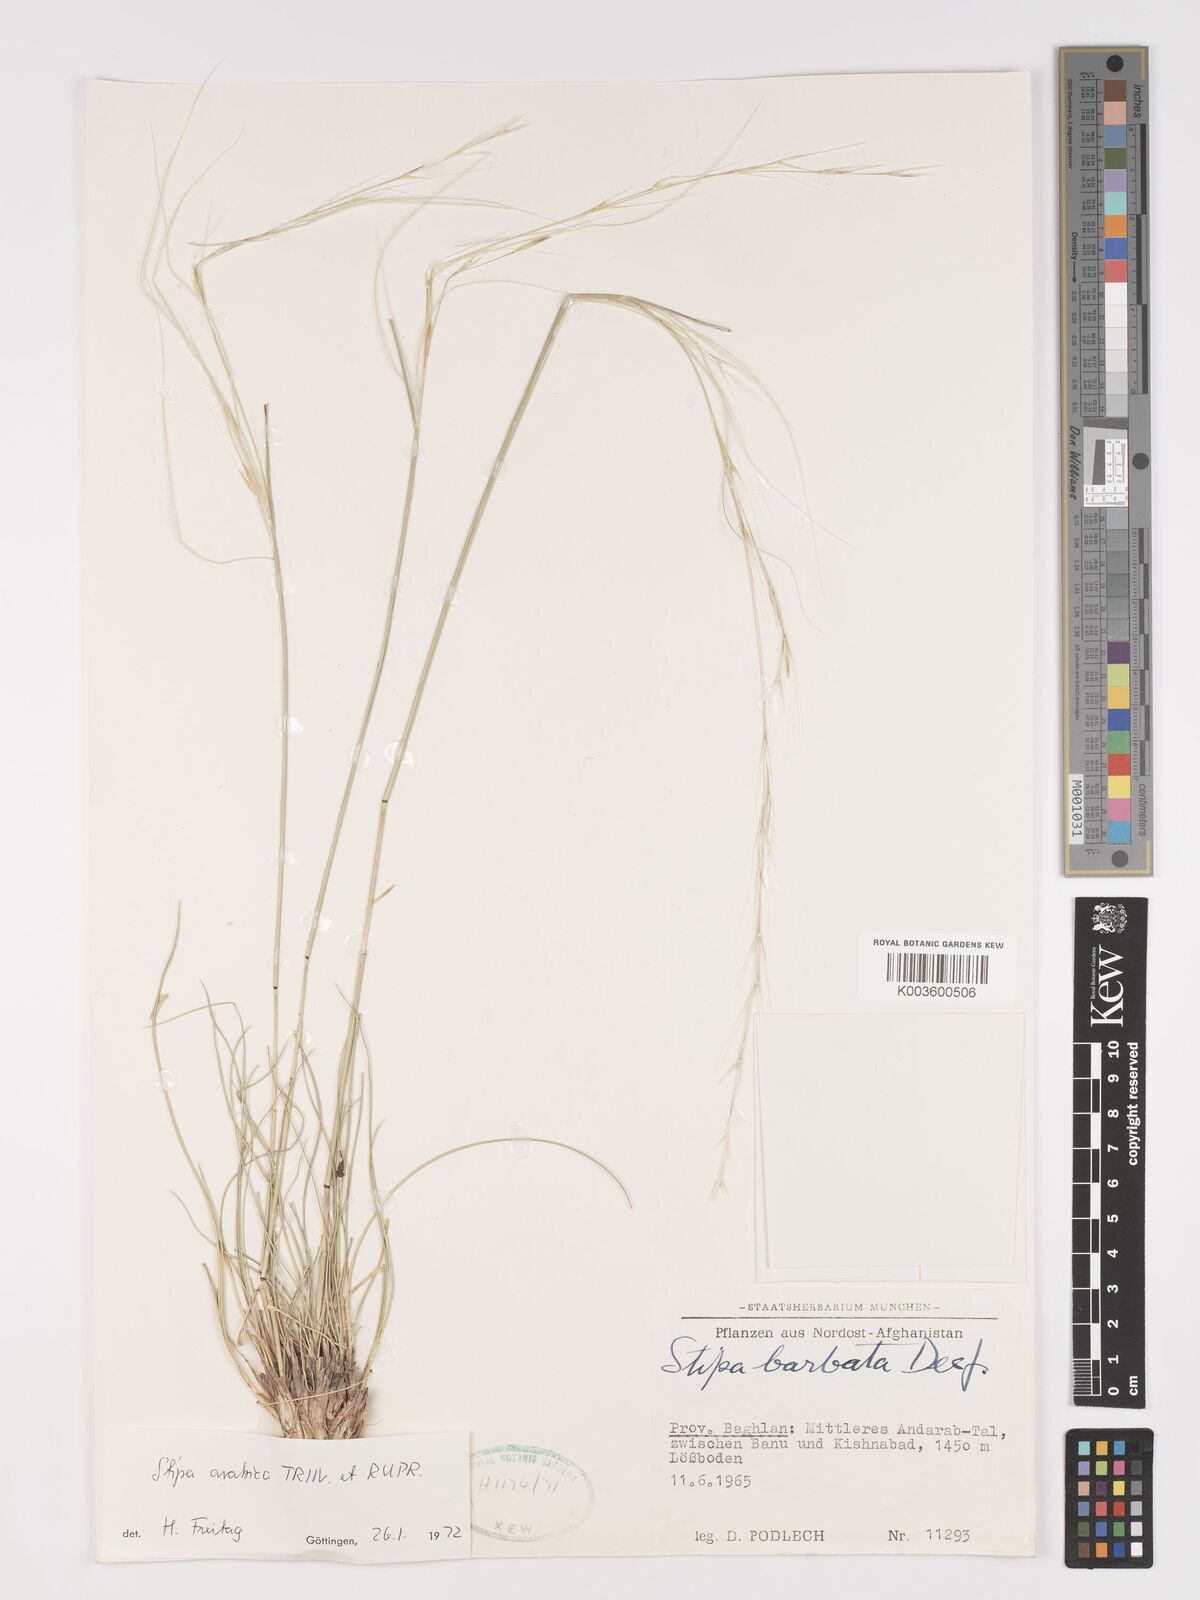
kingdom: Plantae
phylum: Tracheophyta
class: Liliopsida
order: Poales
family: Poaceae
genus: Stipa
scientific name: Stipa arabica
